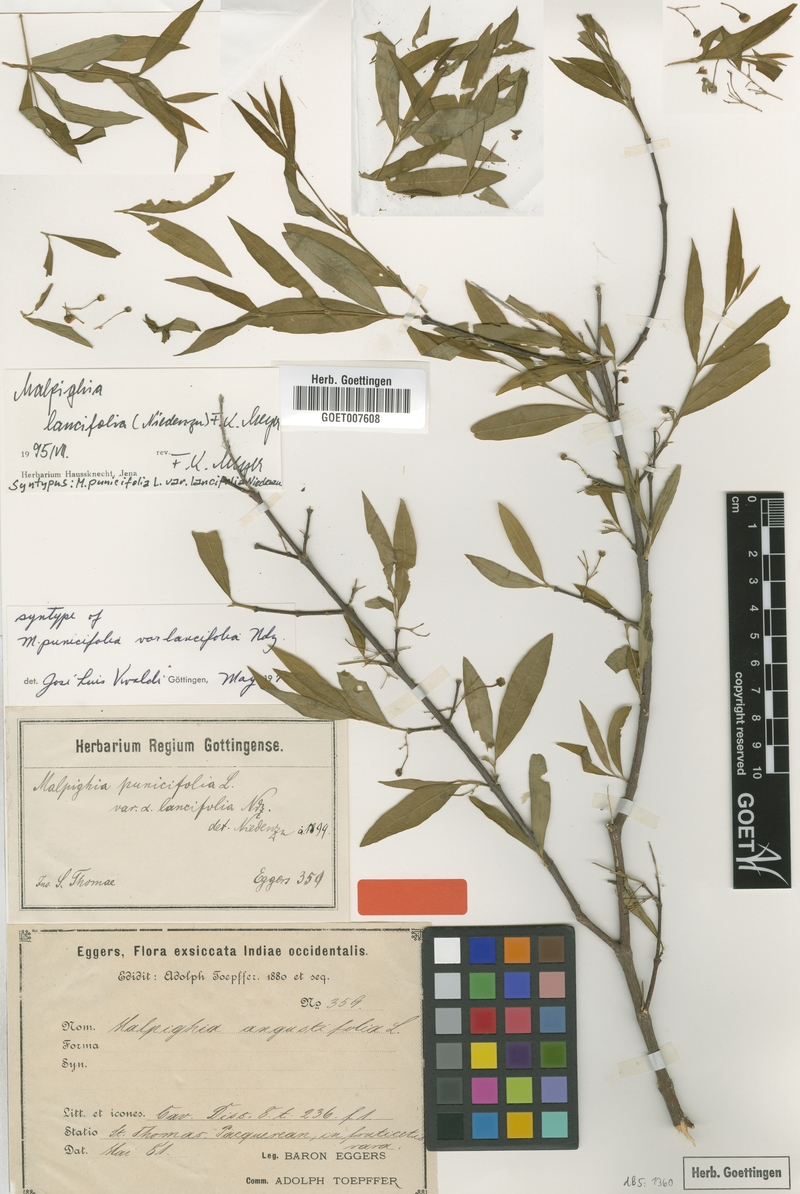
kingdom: Plantae
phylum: Tracheophyta
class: Magnoliopsida
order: Malpighiales
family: Malpighiaceae
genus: Malpighia
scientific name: Malpighia emarginata
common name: Barbados cherry
